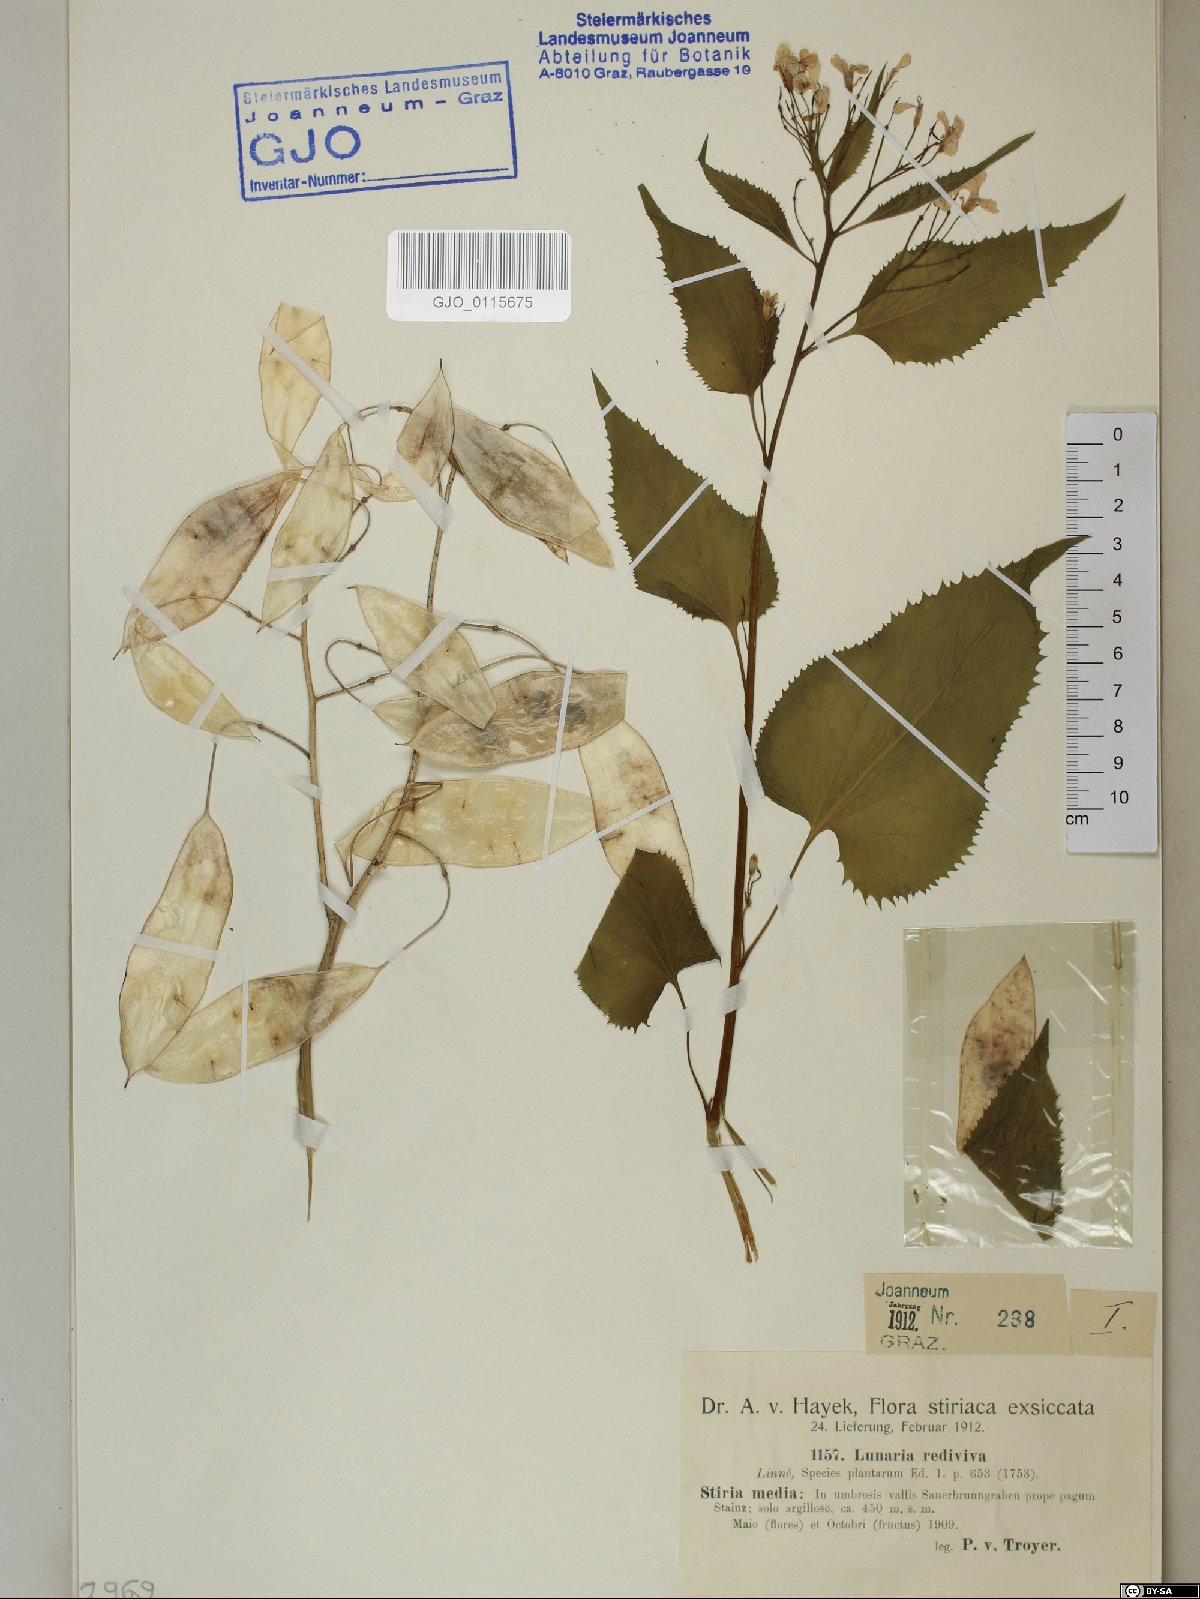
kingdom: Plantae
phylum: Tracheophyta
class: Magnoliopsida
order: Brassicales
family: Brassicaceae
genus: Lunaria
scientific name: Lunaria rediviva
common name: Perennial honesty
